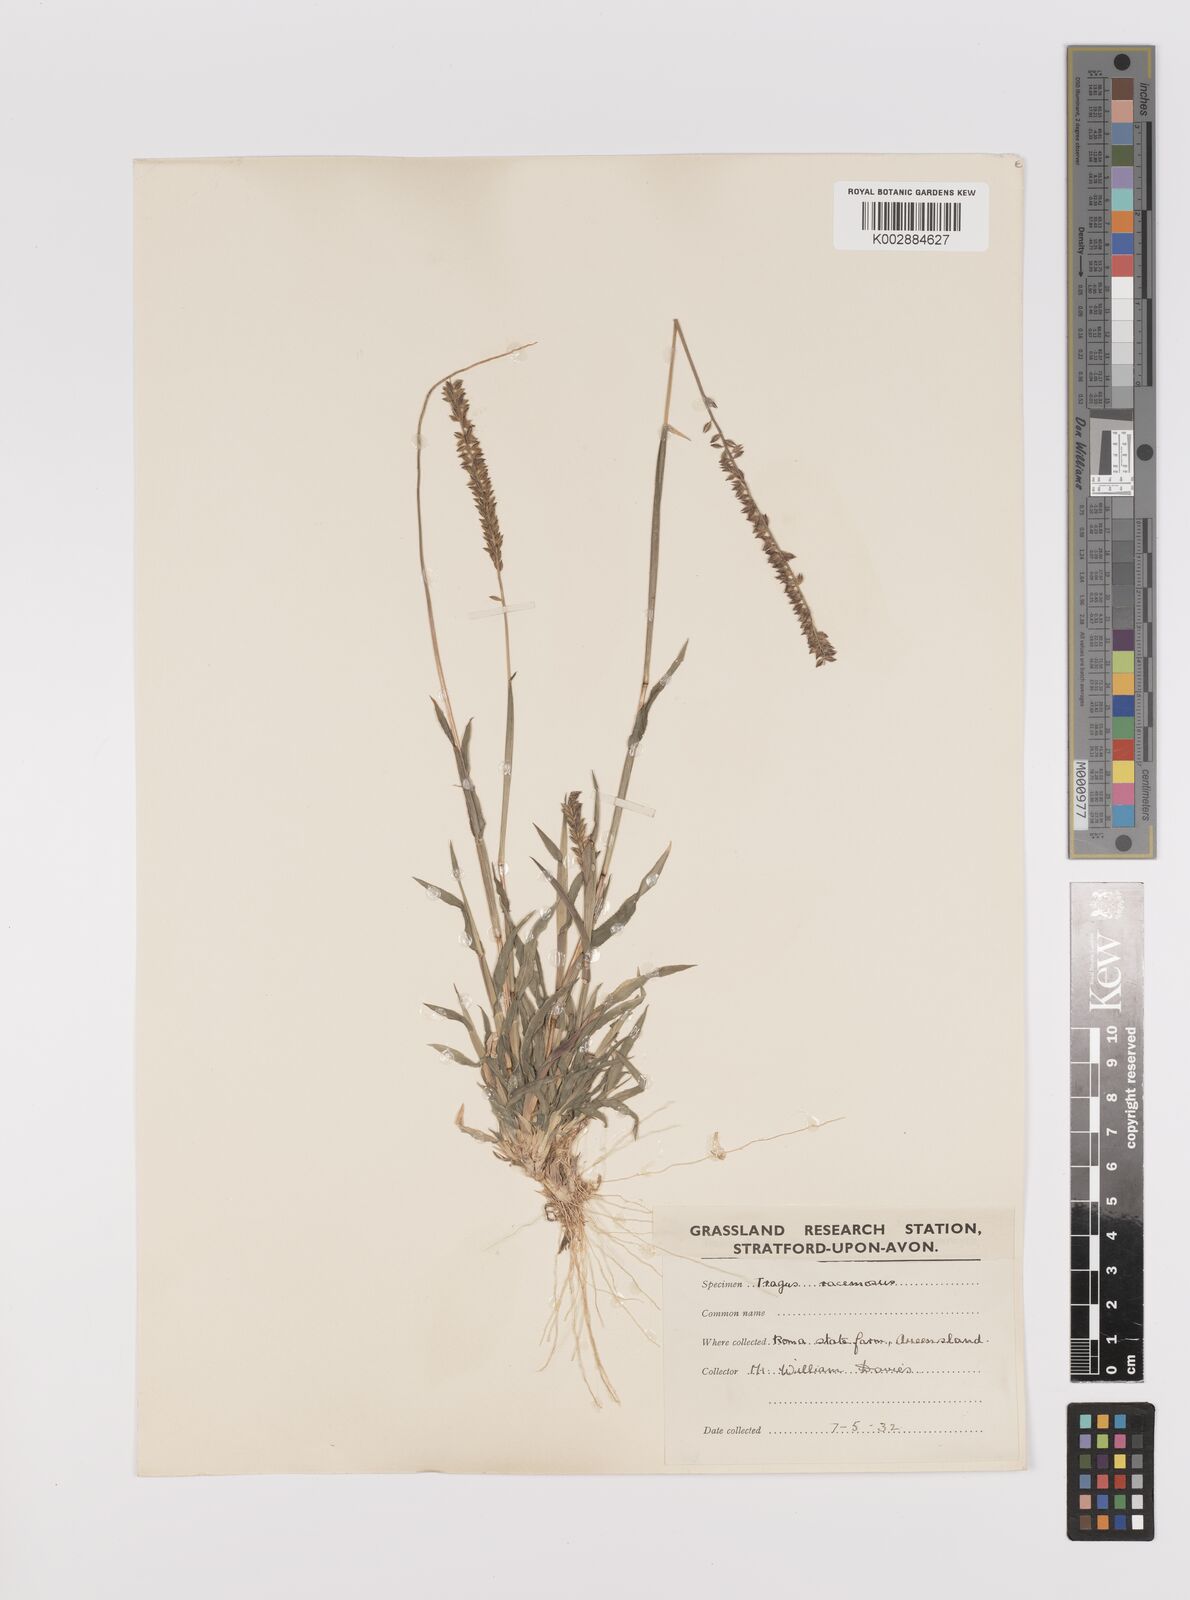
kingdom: Plantae
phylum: Tracheophyta
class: Liliopsida
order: Poales
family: Poaceae
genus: Tragus
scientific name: Tragus australianus
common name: Australian bur-grass
